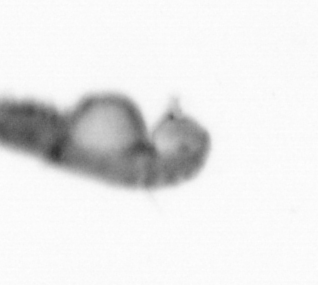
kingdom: Animalia
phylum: Annelida
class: Polychaeta
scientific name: Polychaeta
